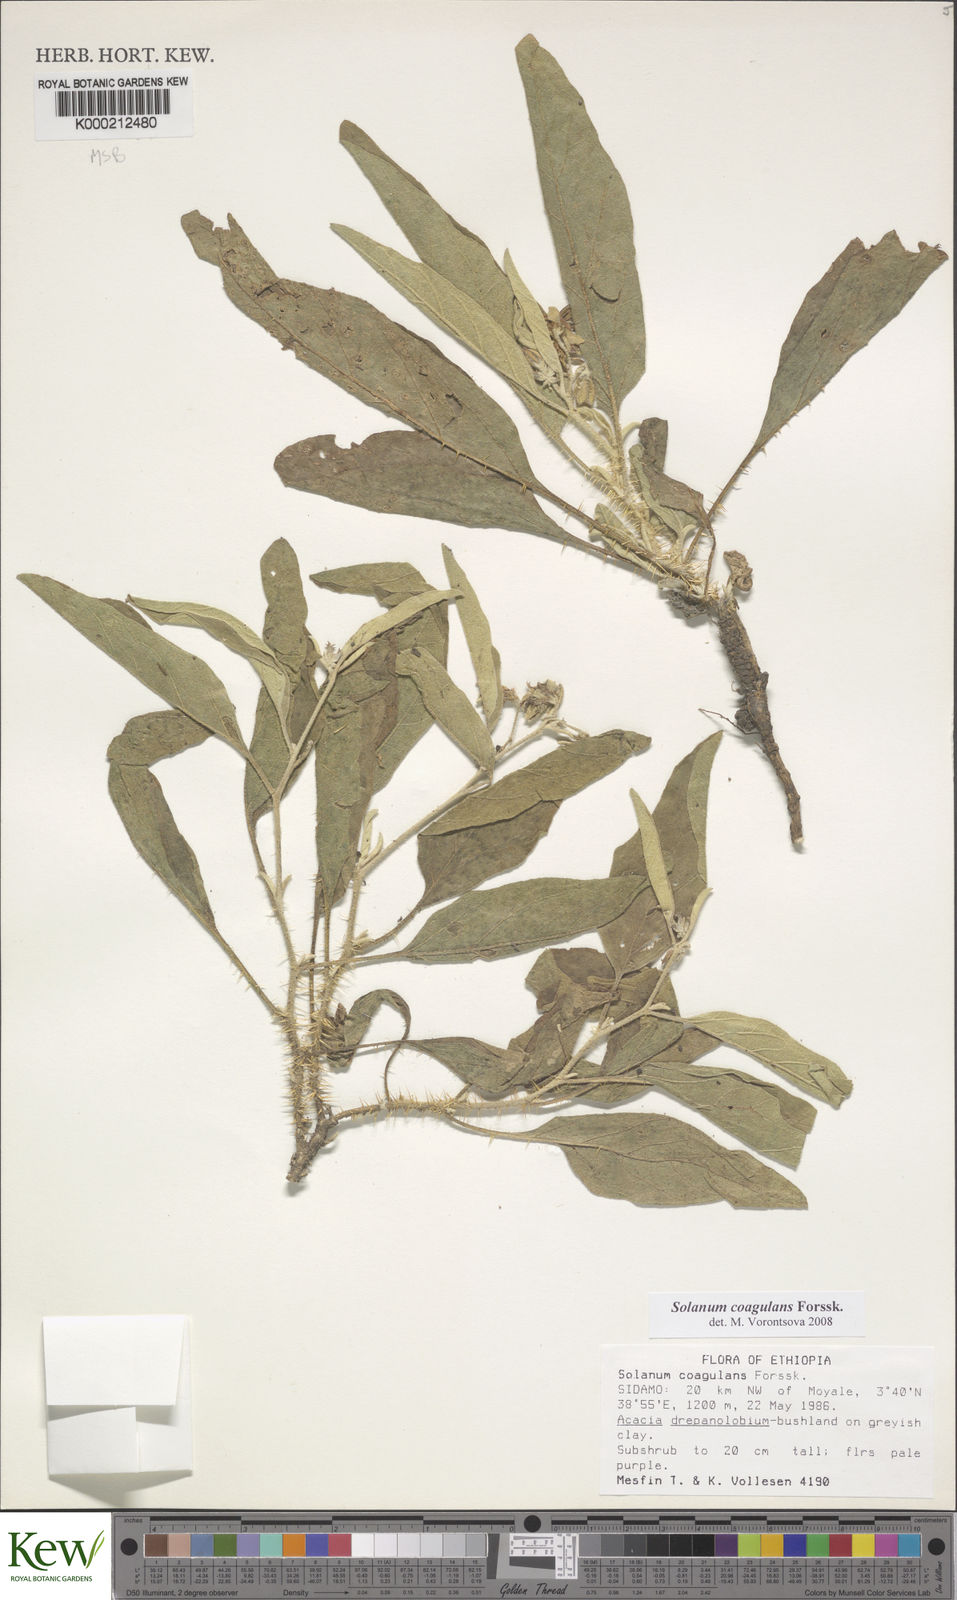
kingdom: Plantae
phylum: Tracheophyta
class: Magnoliopsida
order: Solanales
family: Solanaceae
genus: Solanum
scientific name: Solanum coagulans
